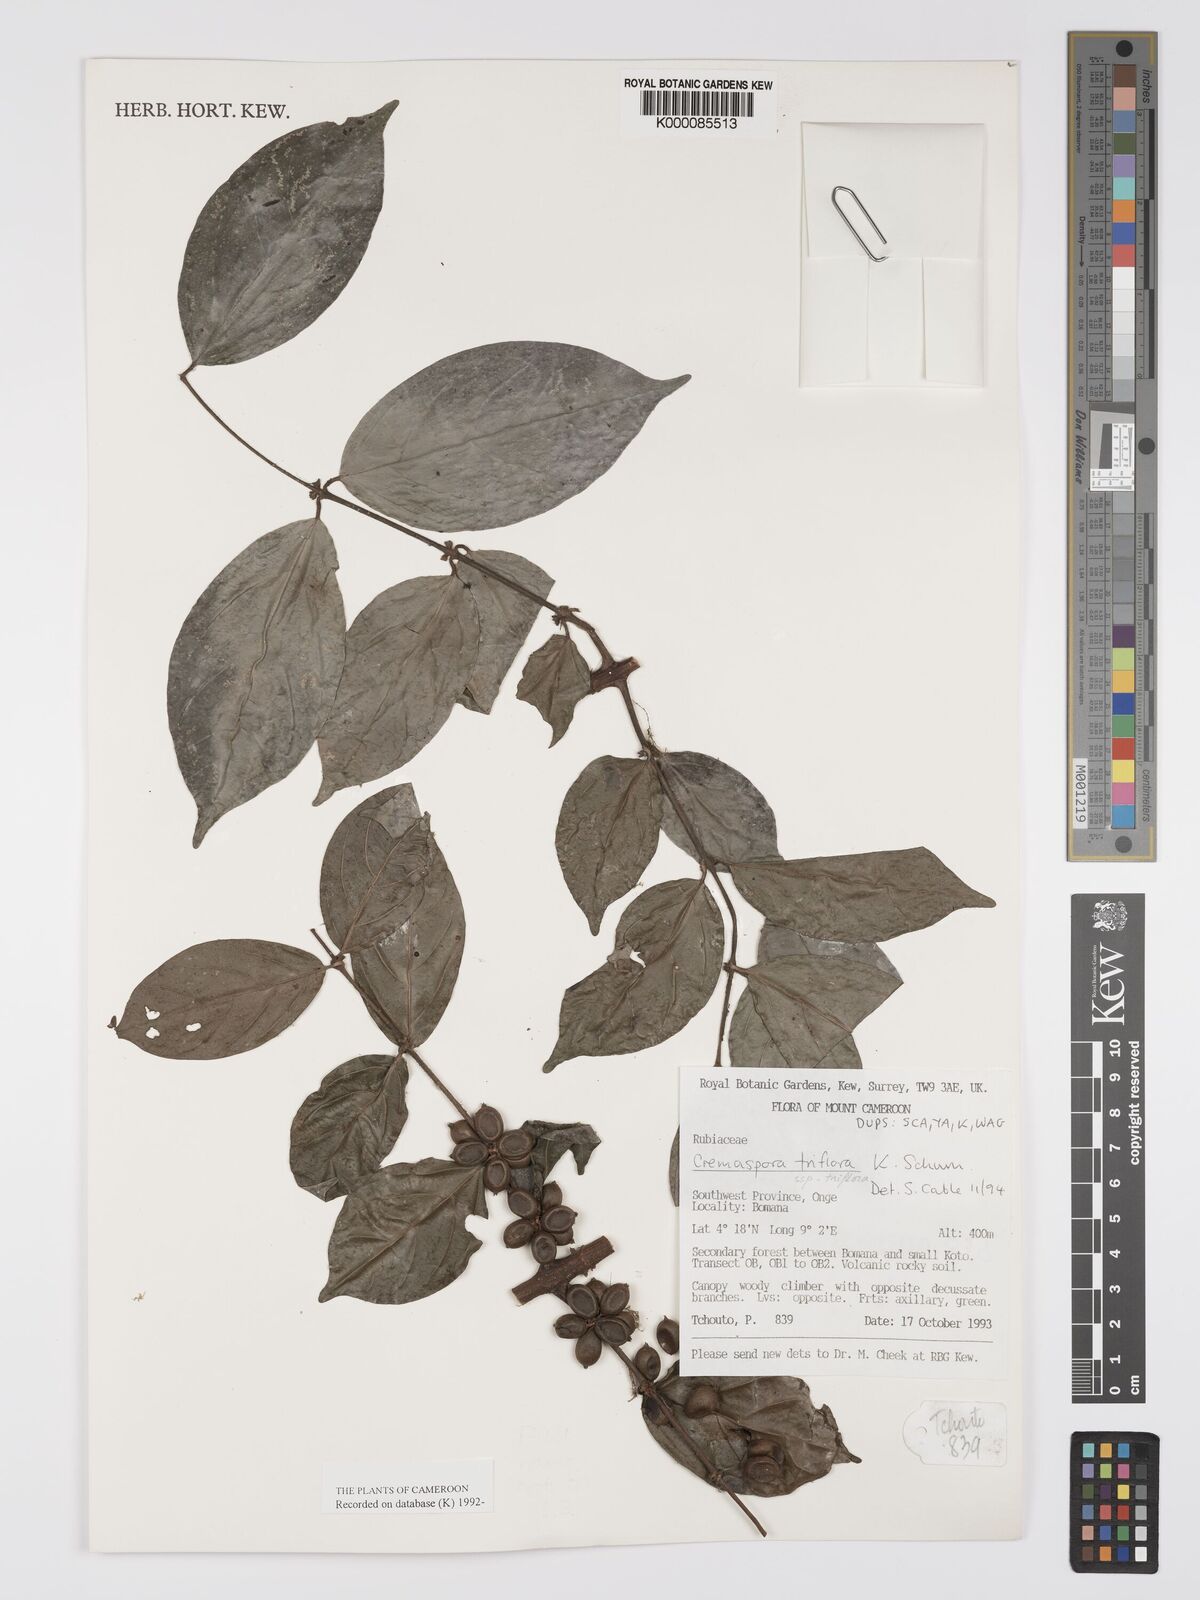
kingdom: Plantae
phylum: Tracheophyta
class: Magnoliopsida
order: Gentianales
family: Rubiaceae
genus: Cremaspora
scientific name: Cremaspora triflora
